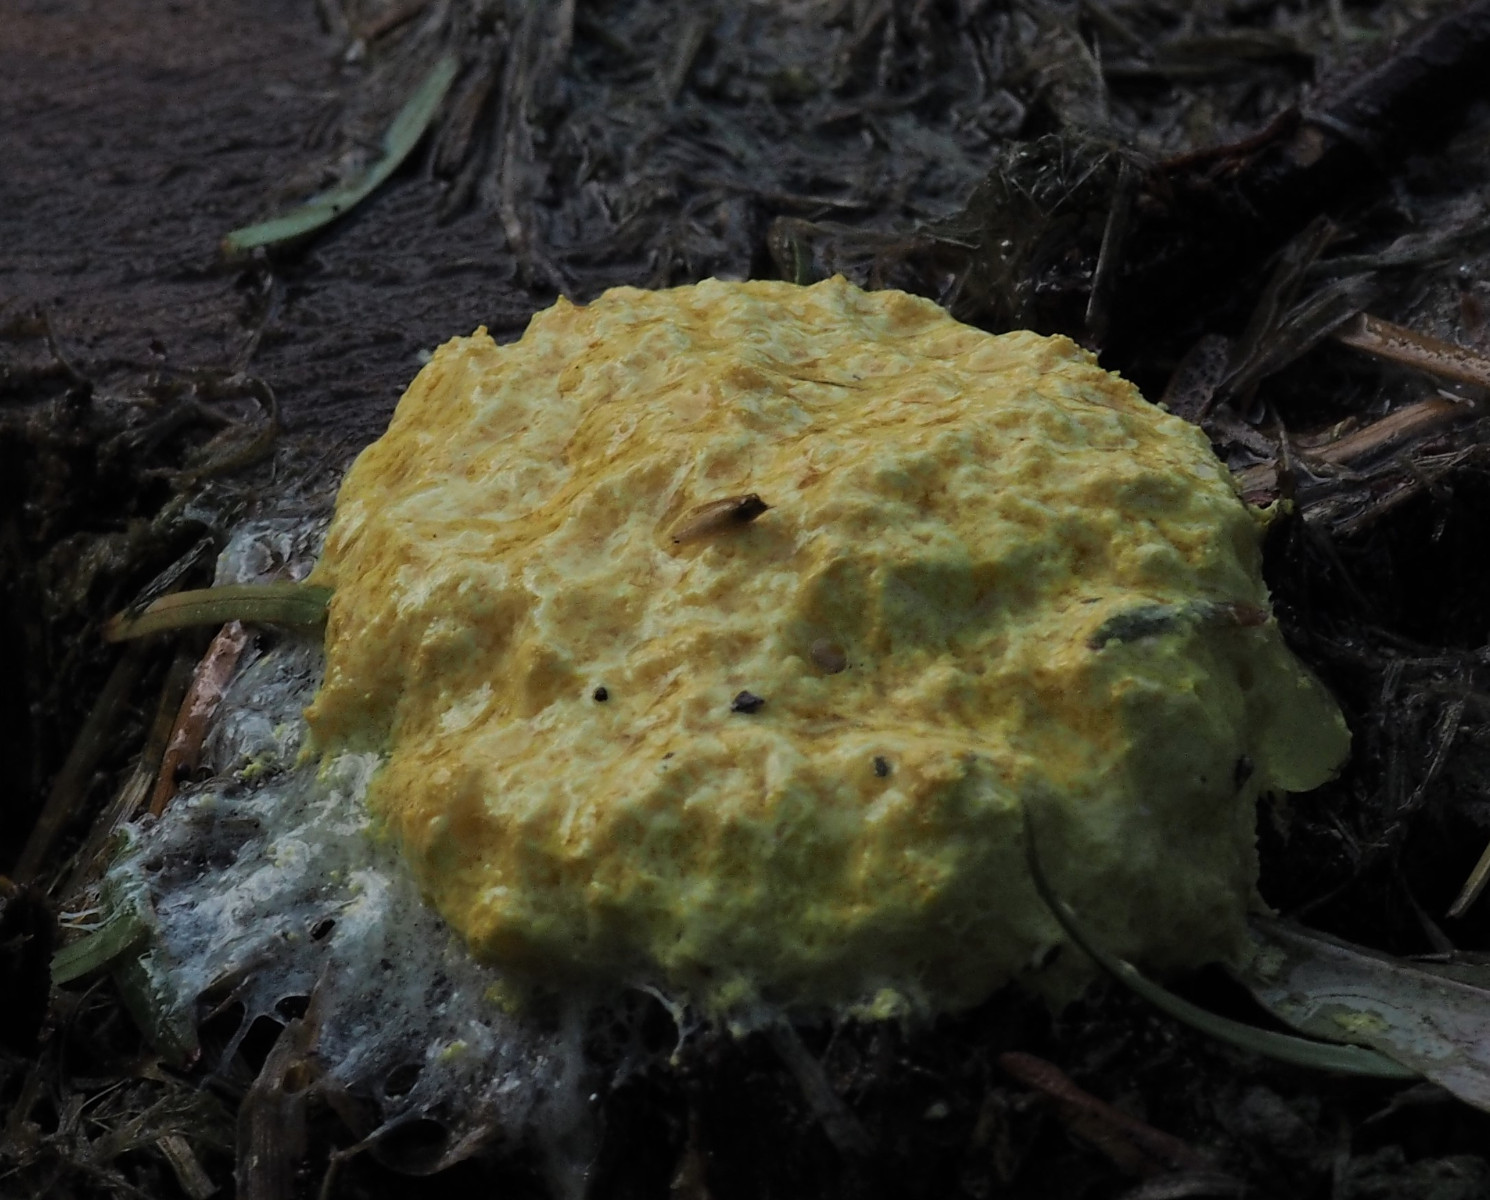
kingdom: Protozoa
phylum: Mycetozoa
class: Myxomycetes
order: Physarales
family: Physaraceae
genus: Fuligo
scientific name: Fuligo septica
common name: gul troldsmør
